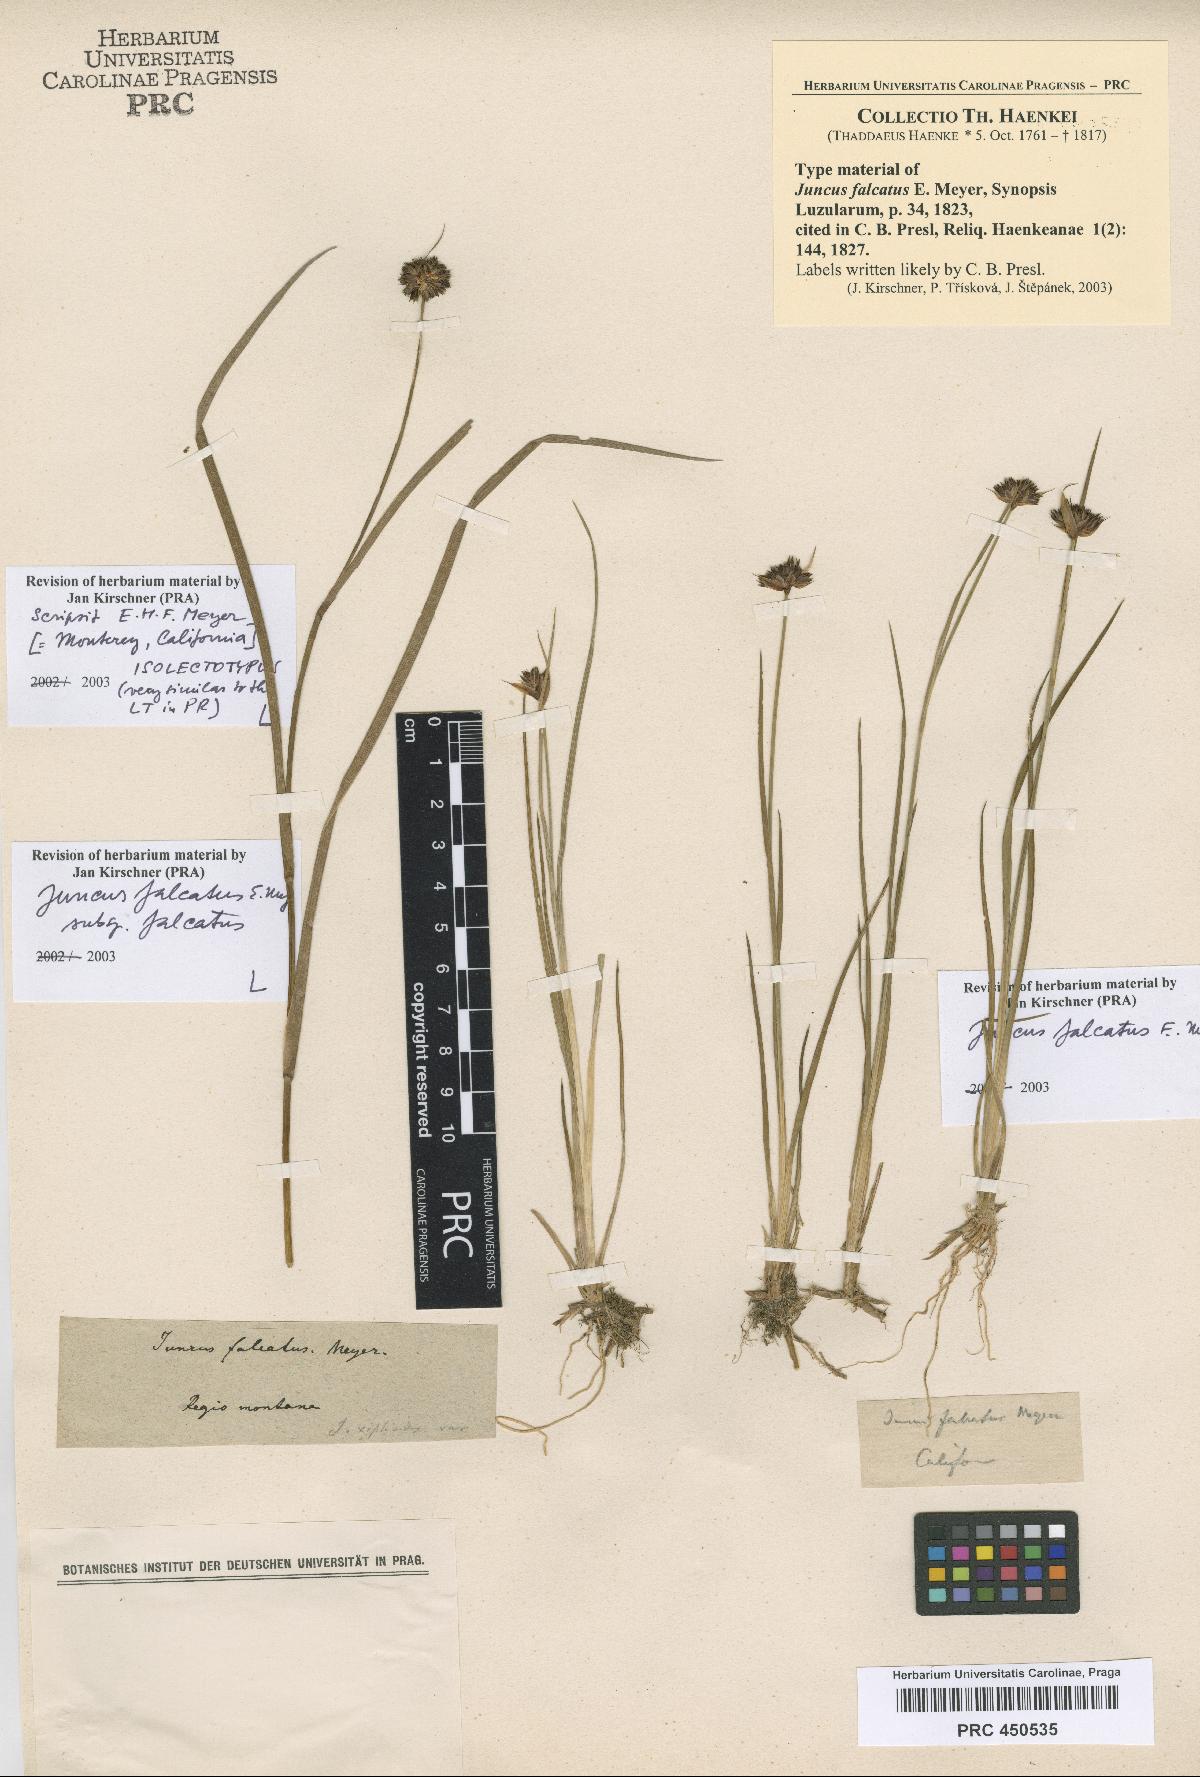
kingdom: Plantae
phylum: Tracheophyta
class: Liliopsida
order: Poales
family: Juncaceae
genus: Juncus
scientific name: Juncus falcatus
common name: Sickle-leaf rush
